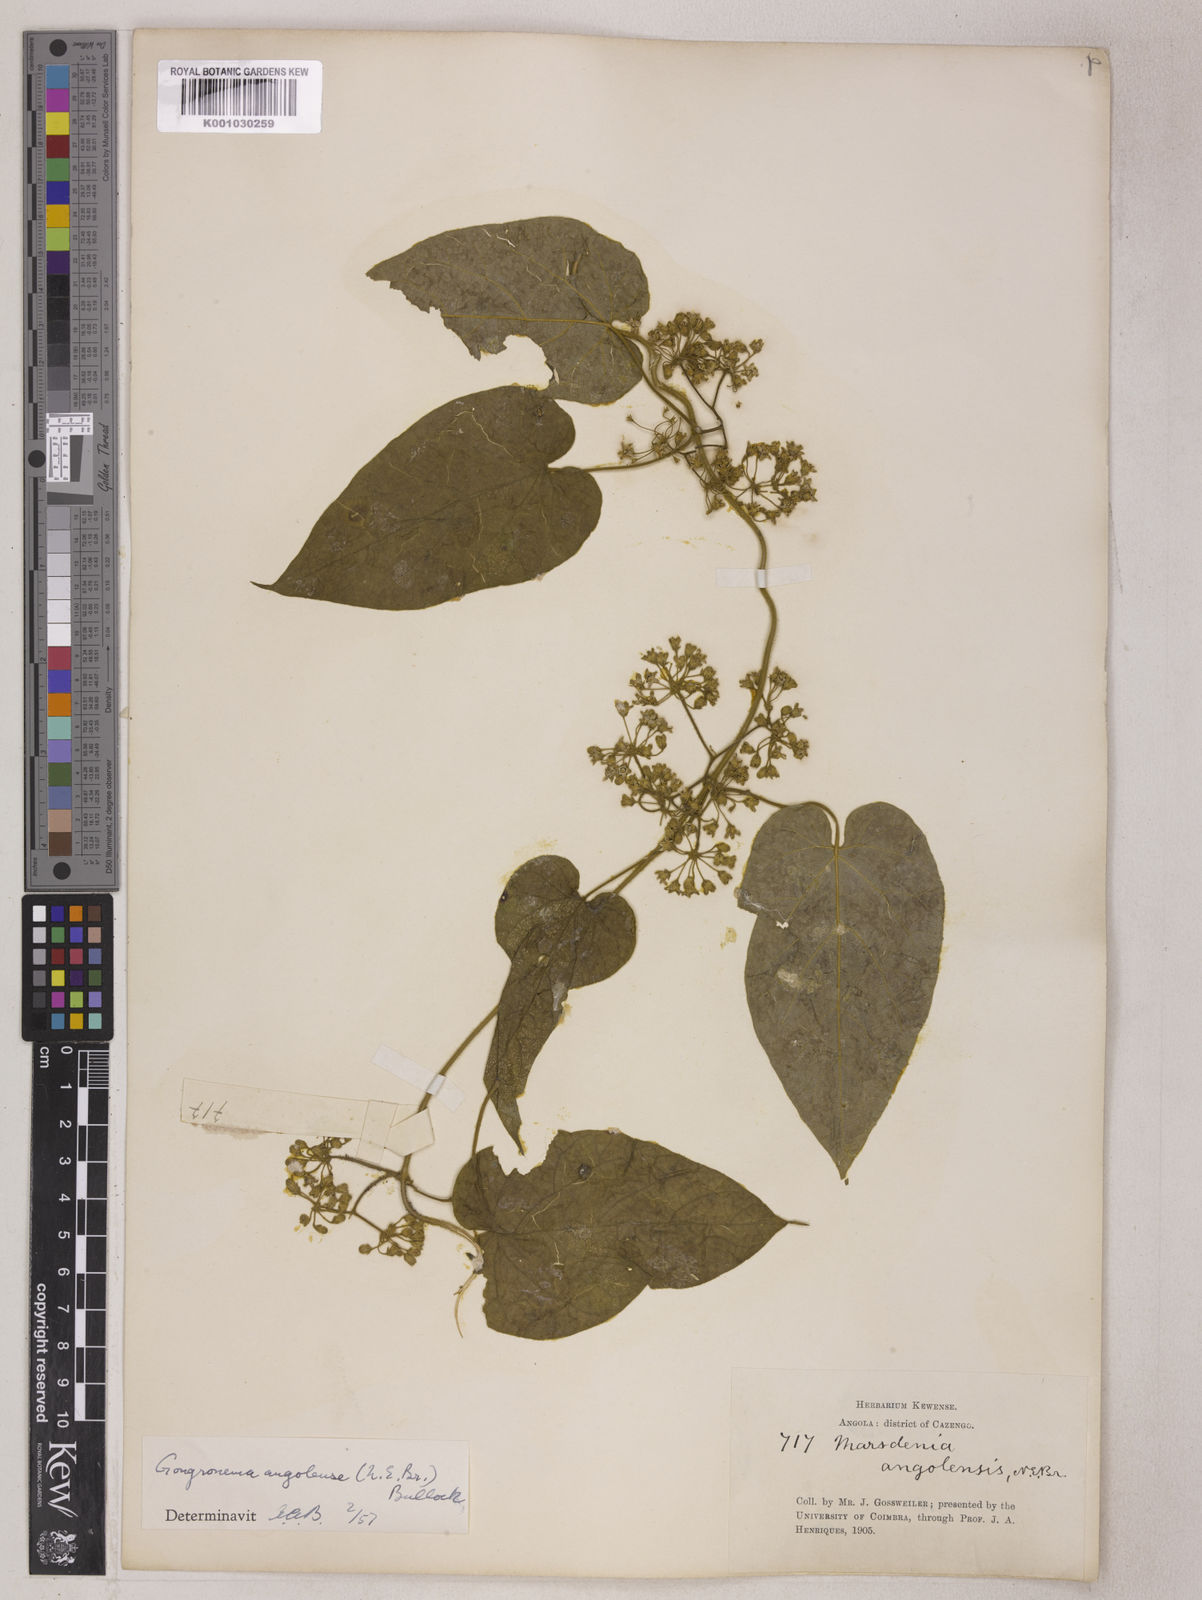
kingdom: Plantae
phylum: Tracheophyta
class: Magnoliopsida
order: Gentianales
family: Apocynaceae
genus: Gongronemopsis
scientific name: Gongronemopsis angolensis
